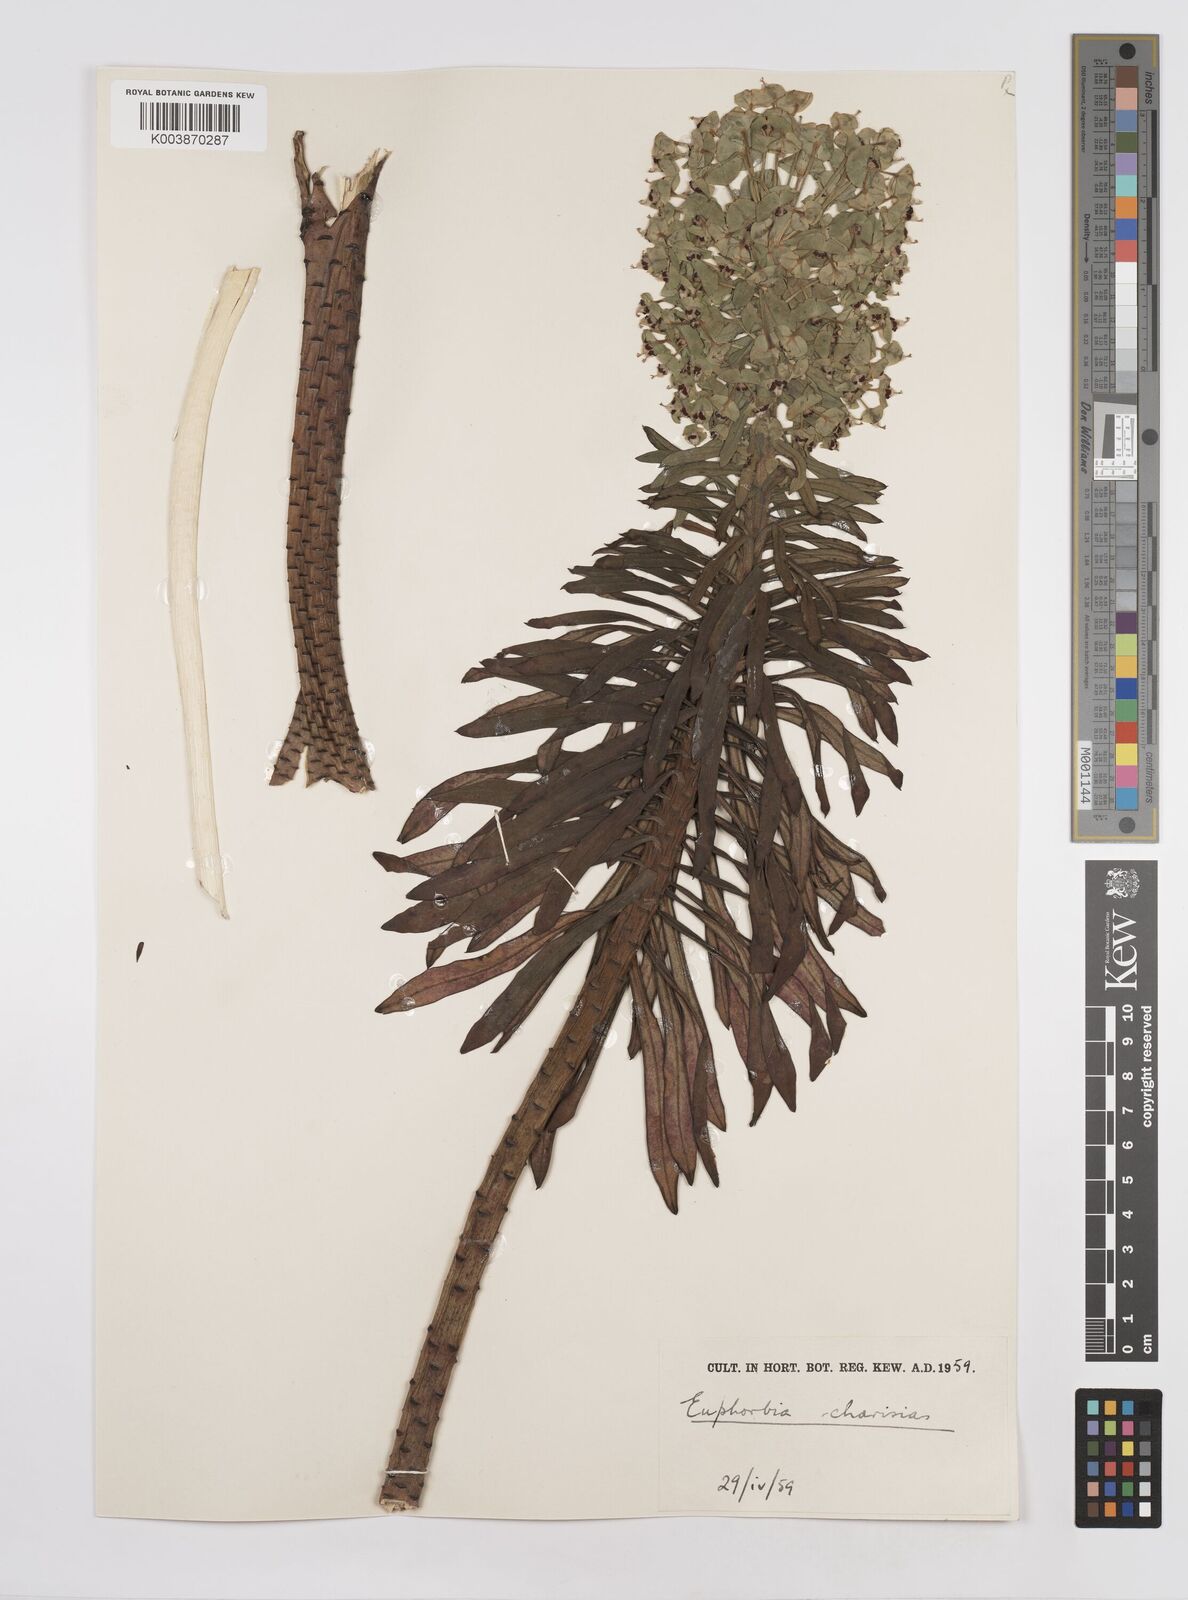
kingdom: Plantae
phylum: Tracheophyta
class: Magnoliopsida
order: Malpighiales
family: Euphorbiaceae
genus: Euphorbia
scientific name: Euphorbia characias
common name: Mediterranean spurge
